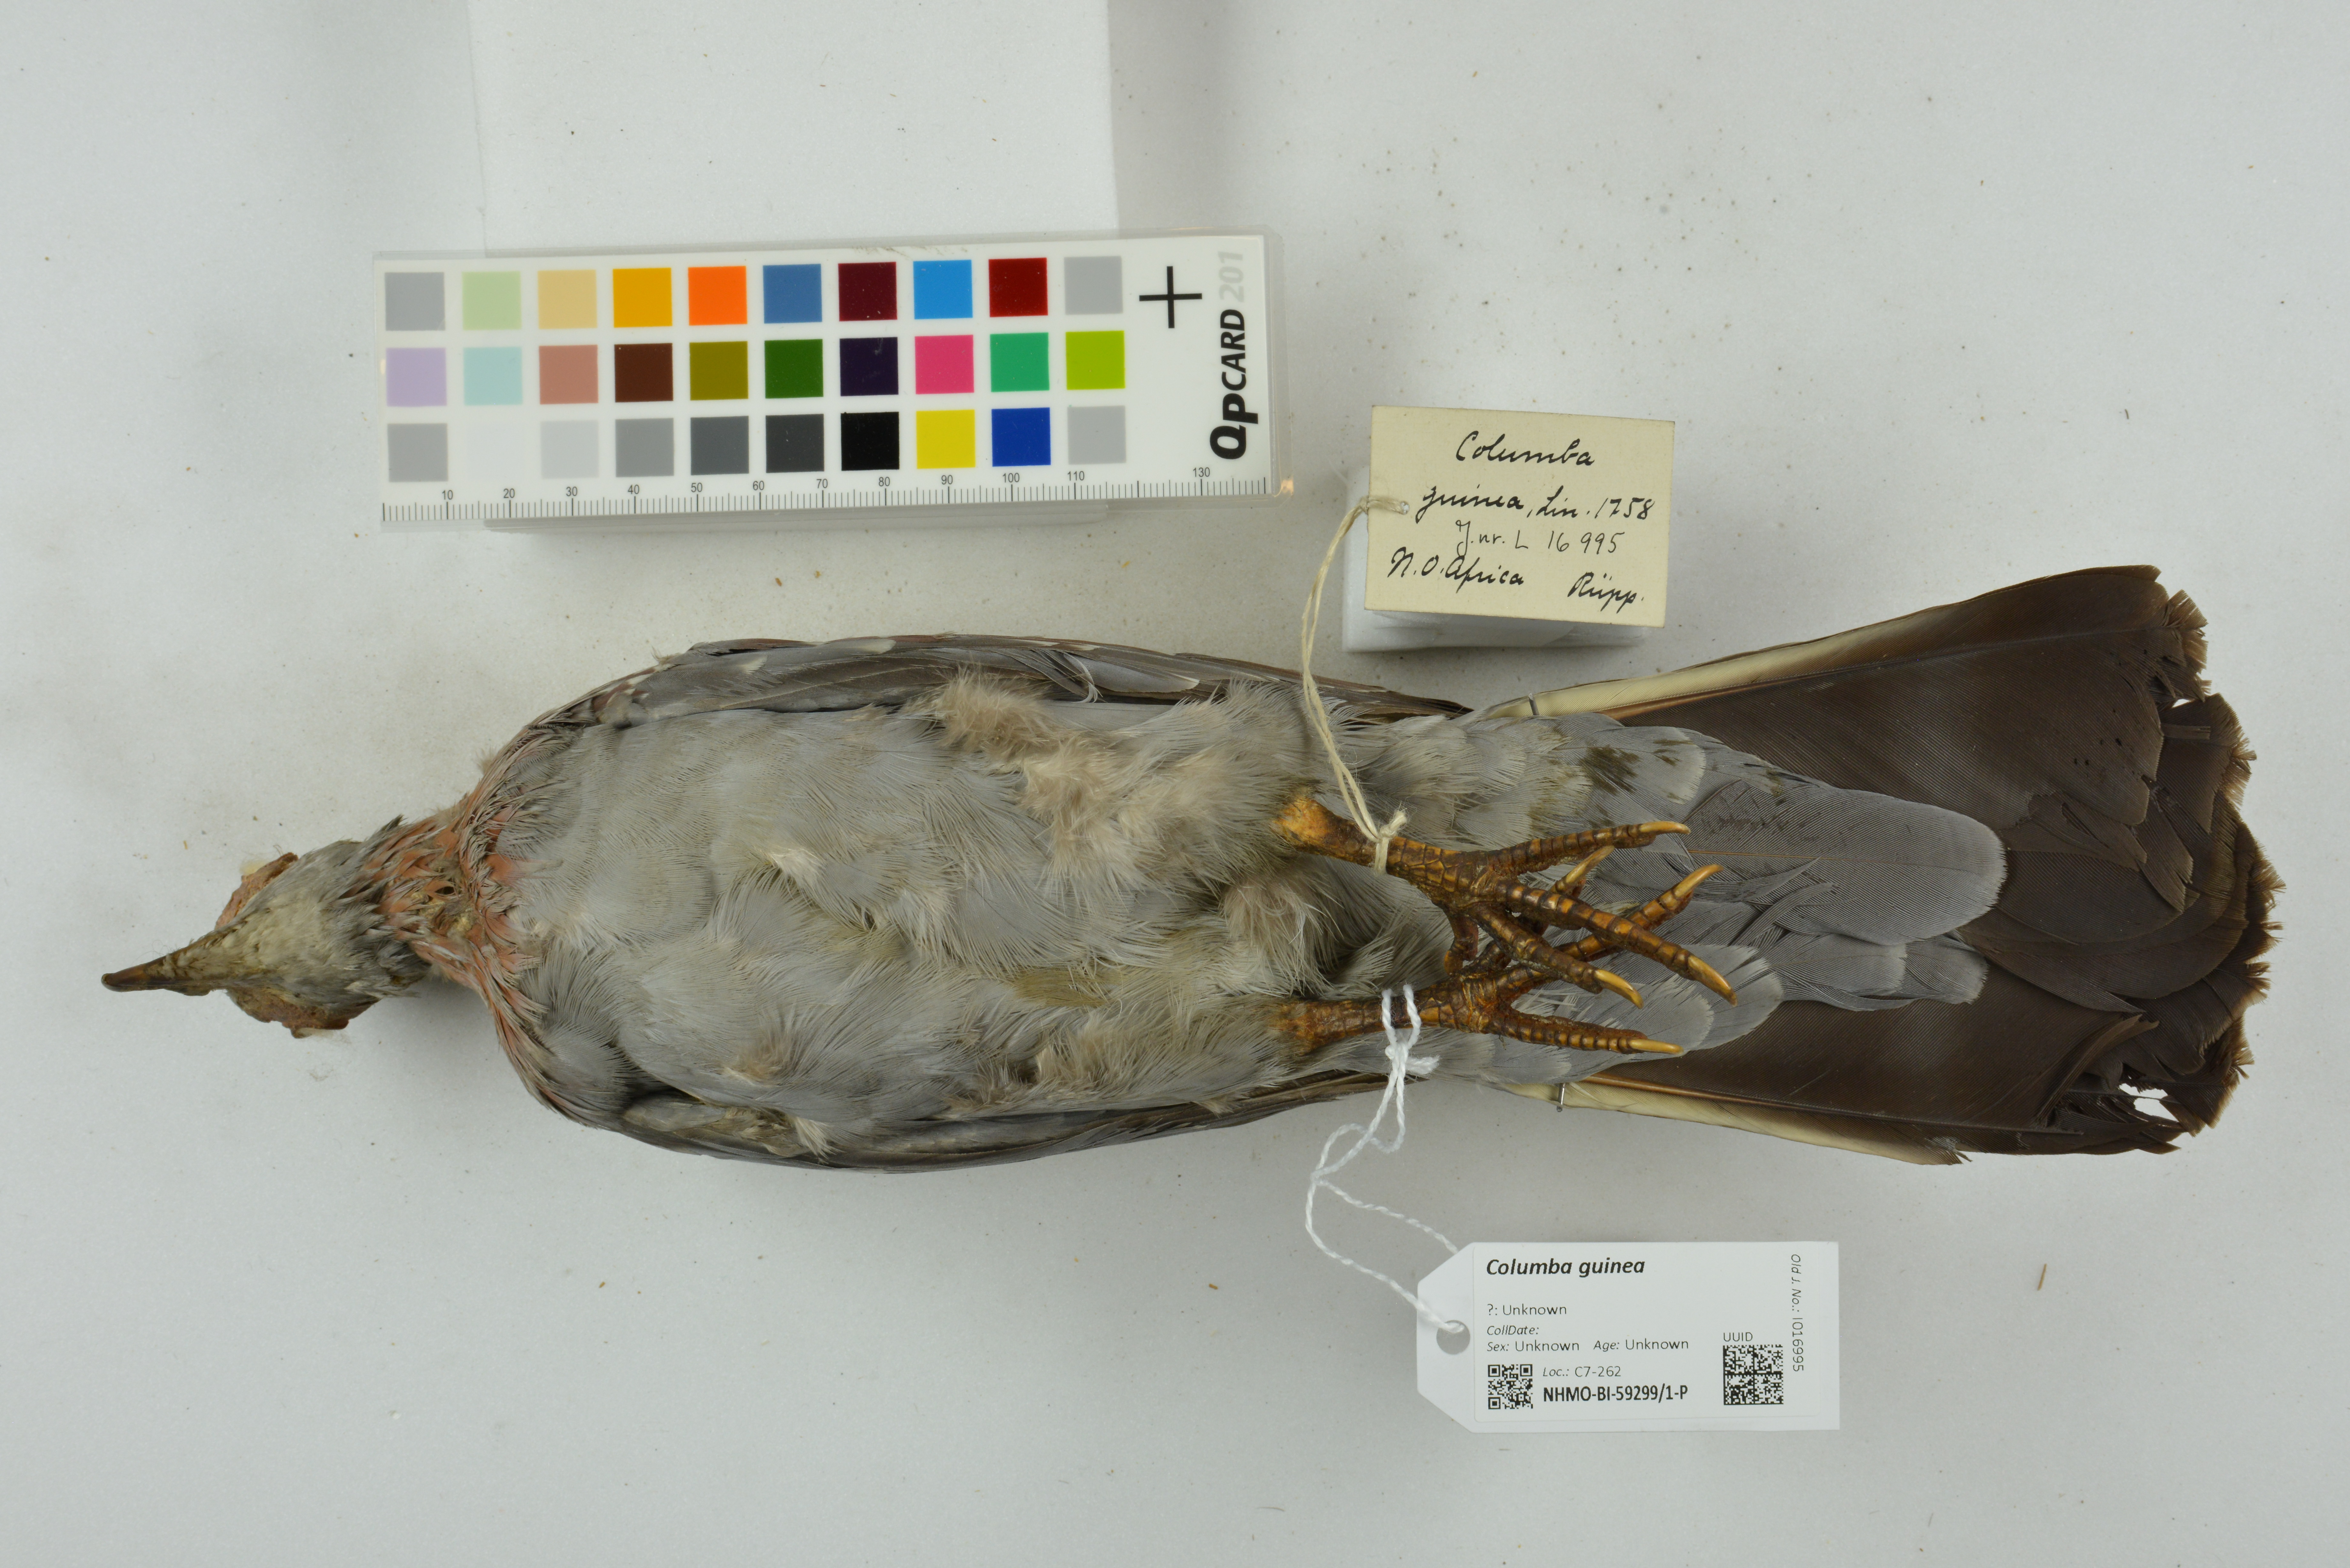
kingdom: Animalia
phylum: Chordata
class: Aves
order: Columbiformes
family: Columbidae
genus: Columba
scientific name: Columba guinea
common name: Speckled pigeon
